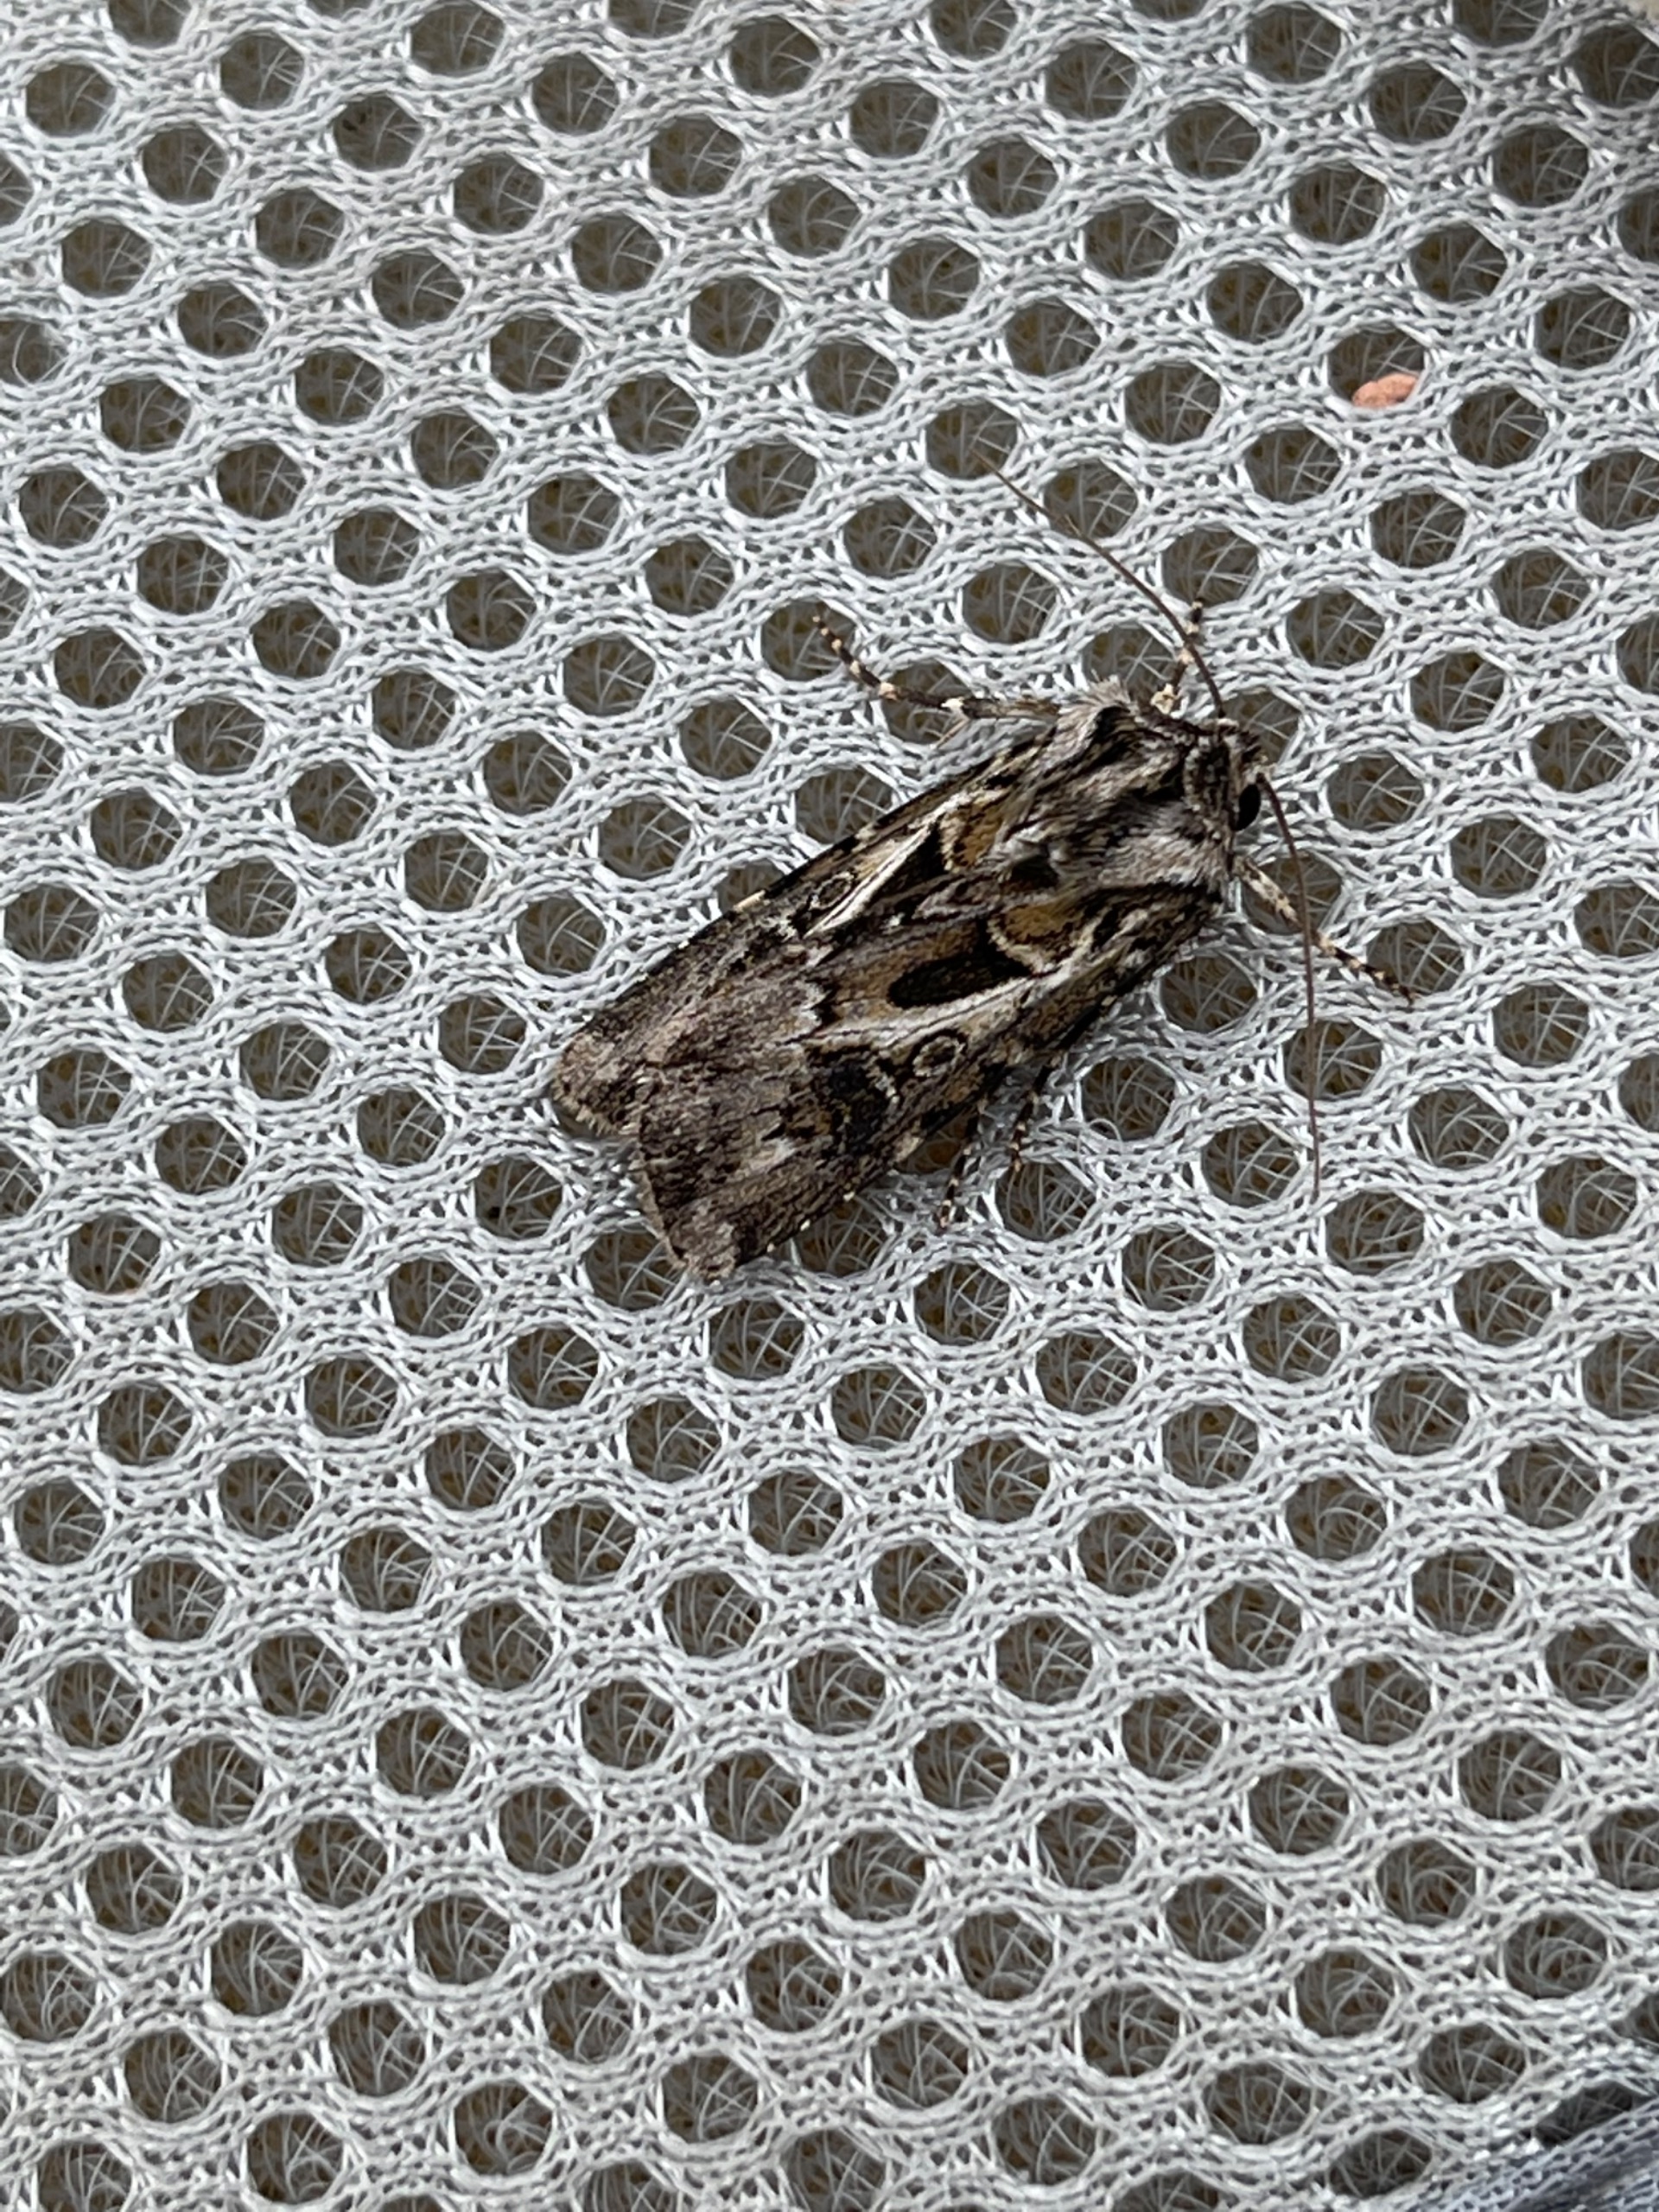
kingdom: Animalia
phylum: Arthropoda
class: Insecta
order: Lepidoptera
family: Noctuidae
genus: Agrotis
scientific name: Agrotis vestigialis
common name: Strand-landmand
